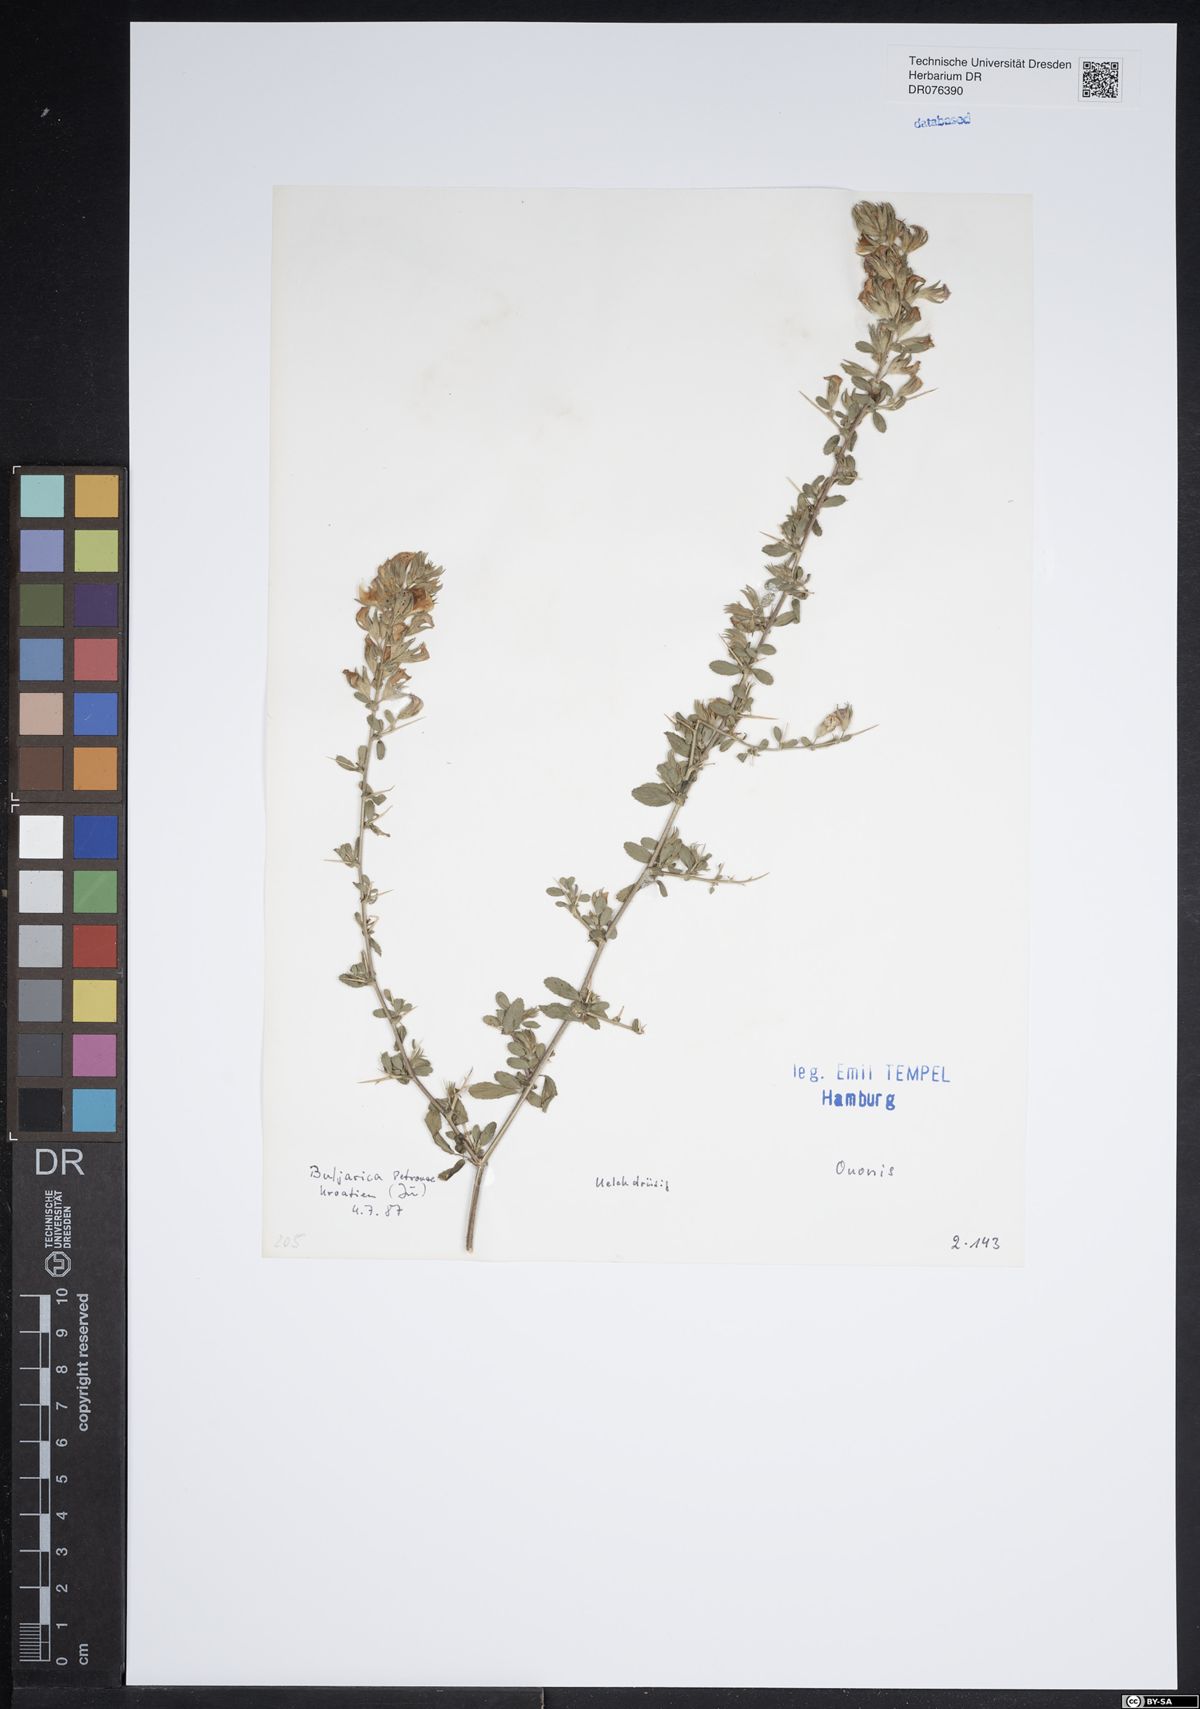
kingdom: Plantae
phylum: Tracheophyta
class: Magnoliopsida
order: Fabales
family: Fabaceae
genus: Ononis
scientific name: Ononis
